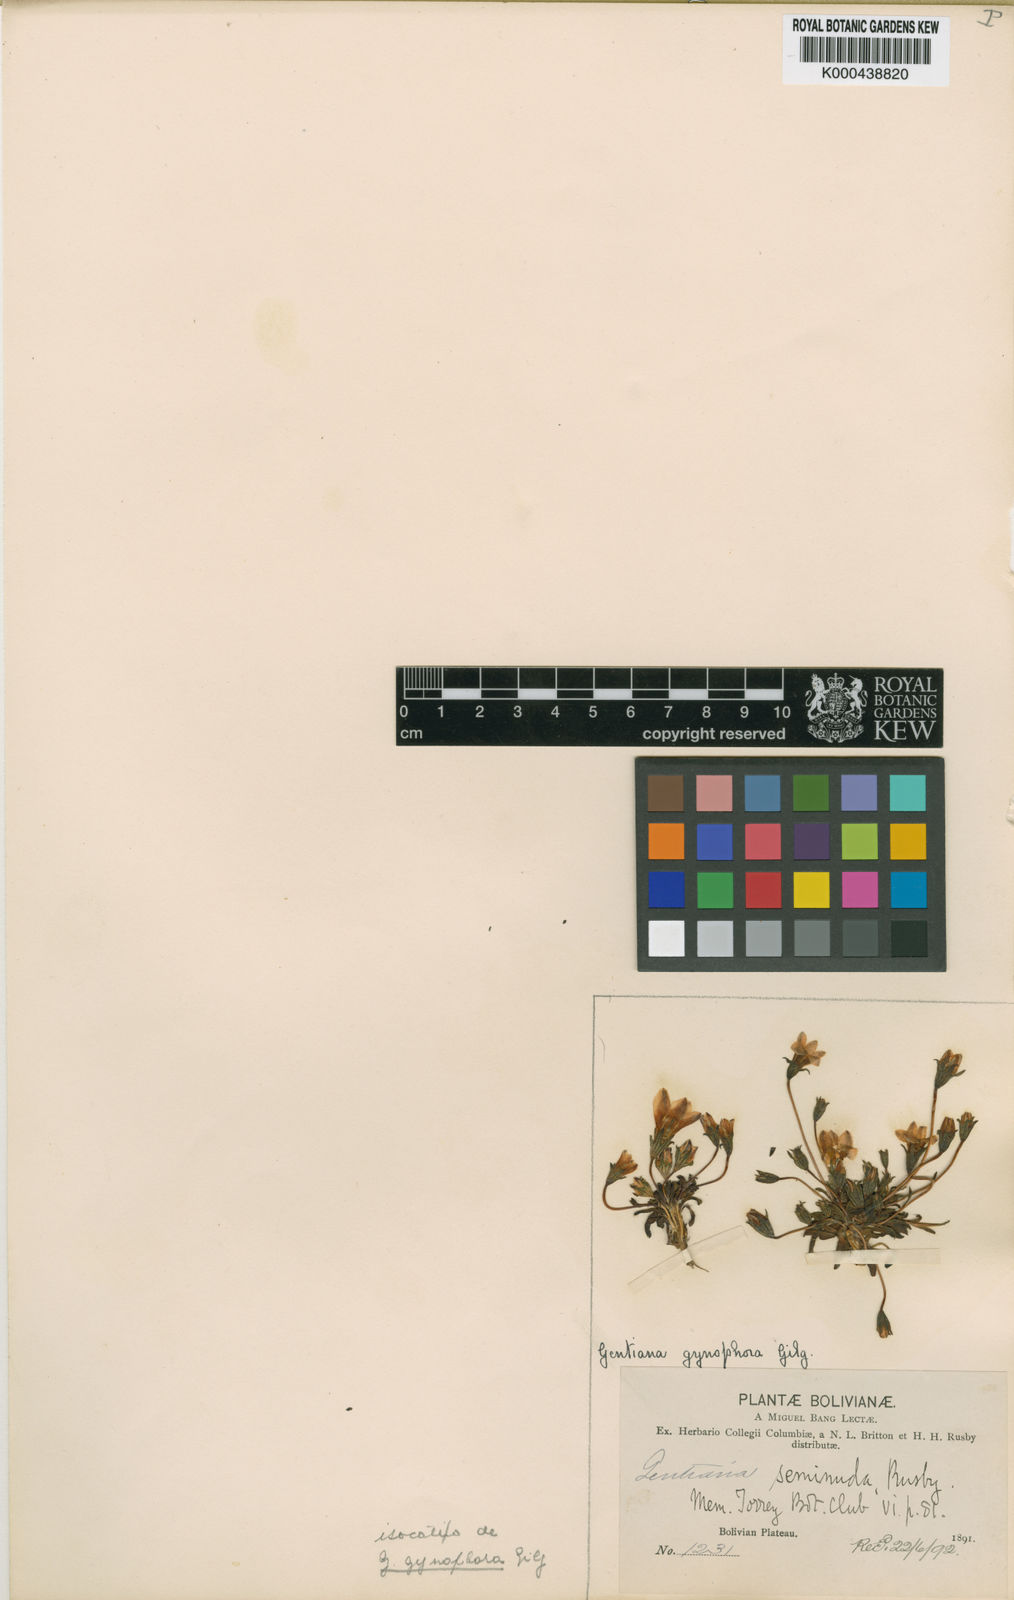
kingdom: Plantae
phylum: Tracheophyta
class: Magnoliopsida
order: Gentianales
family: Gentianaceae
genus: Gentianella
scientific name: Gentianella
